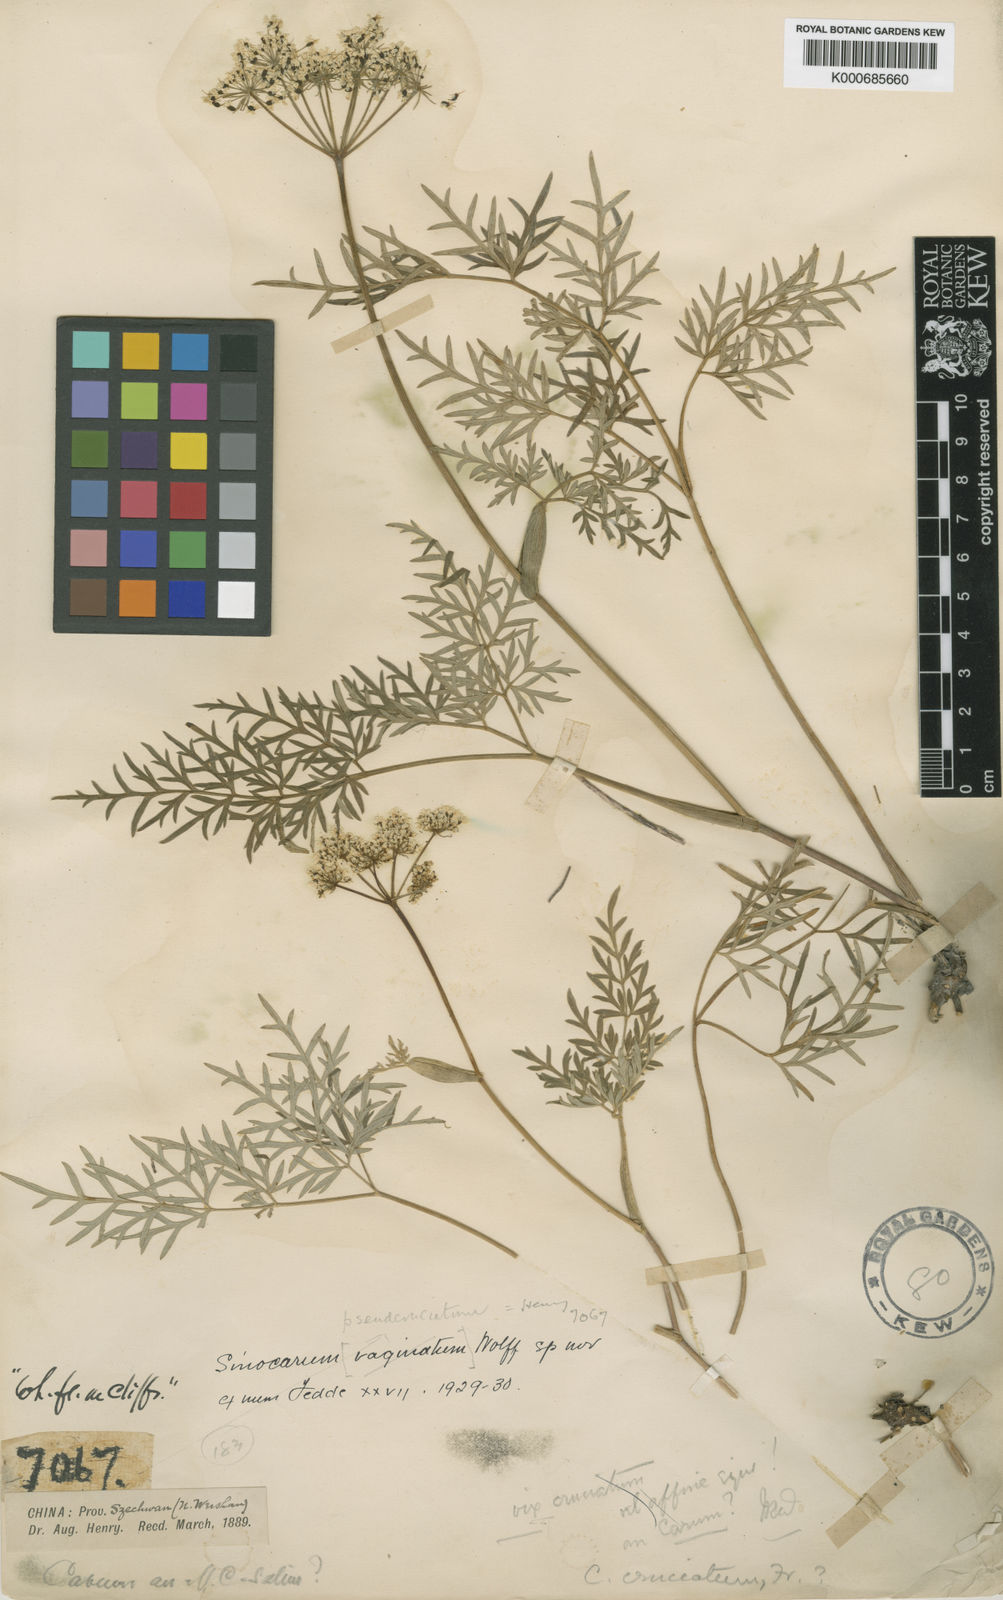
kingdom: Plantae
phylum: Tracheophyta
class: Magnoliopsida
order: Apiales
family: Apiaceae
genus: Carum
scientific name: Carum
